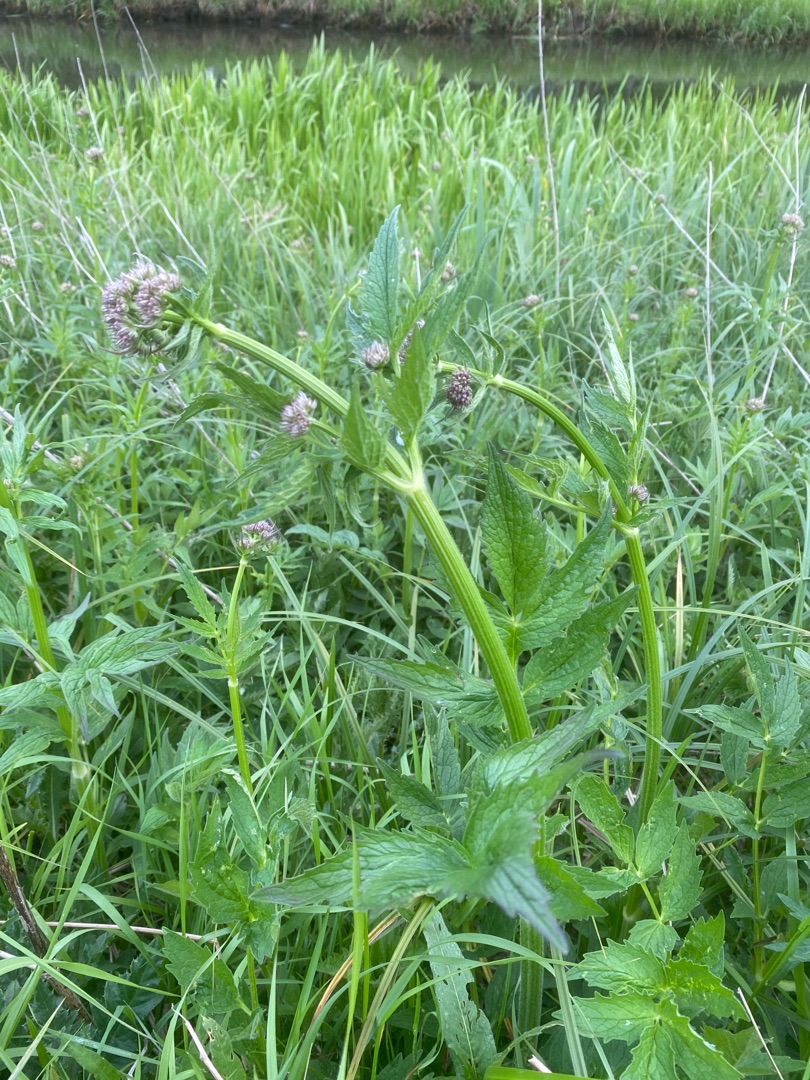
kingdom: Plantae
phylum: Tracheophyta
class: Magnoliopsida
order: Dipsacales
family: Caprifoliaceae
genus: Valeriana
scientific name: Valeriana sambucifolia
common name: Hyldebladet baldrian
